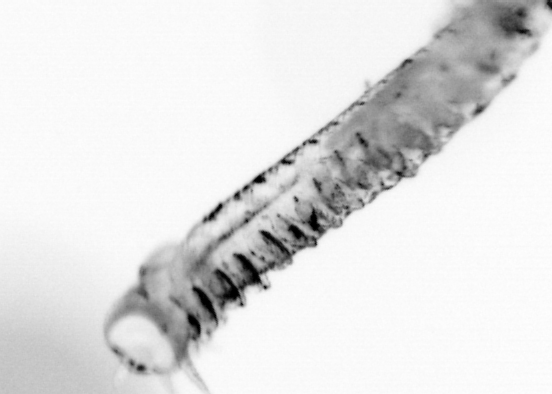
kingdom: Animalia
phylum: Annelida
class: Polychaeta
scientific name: Polychaeta
